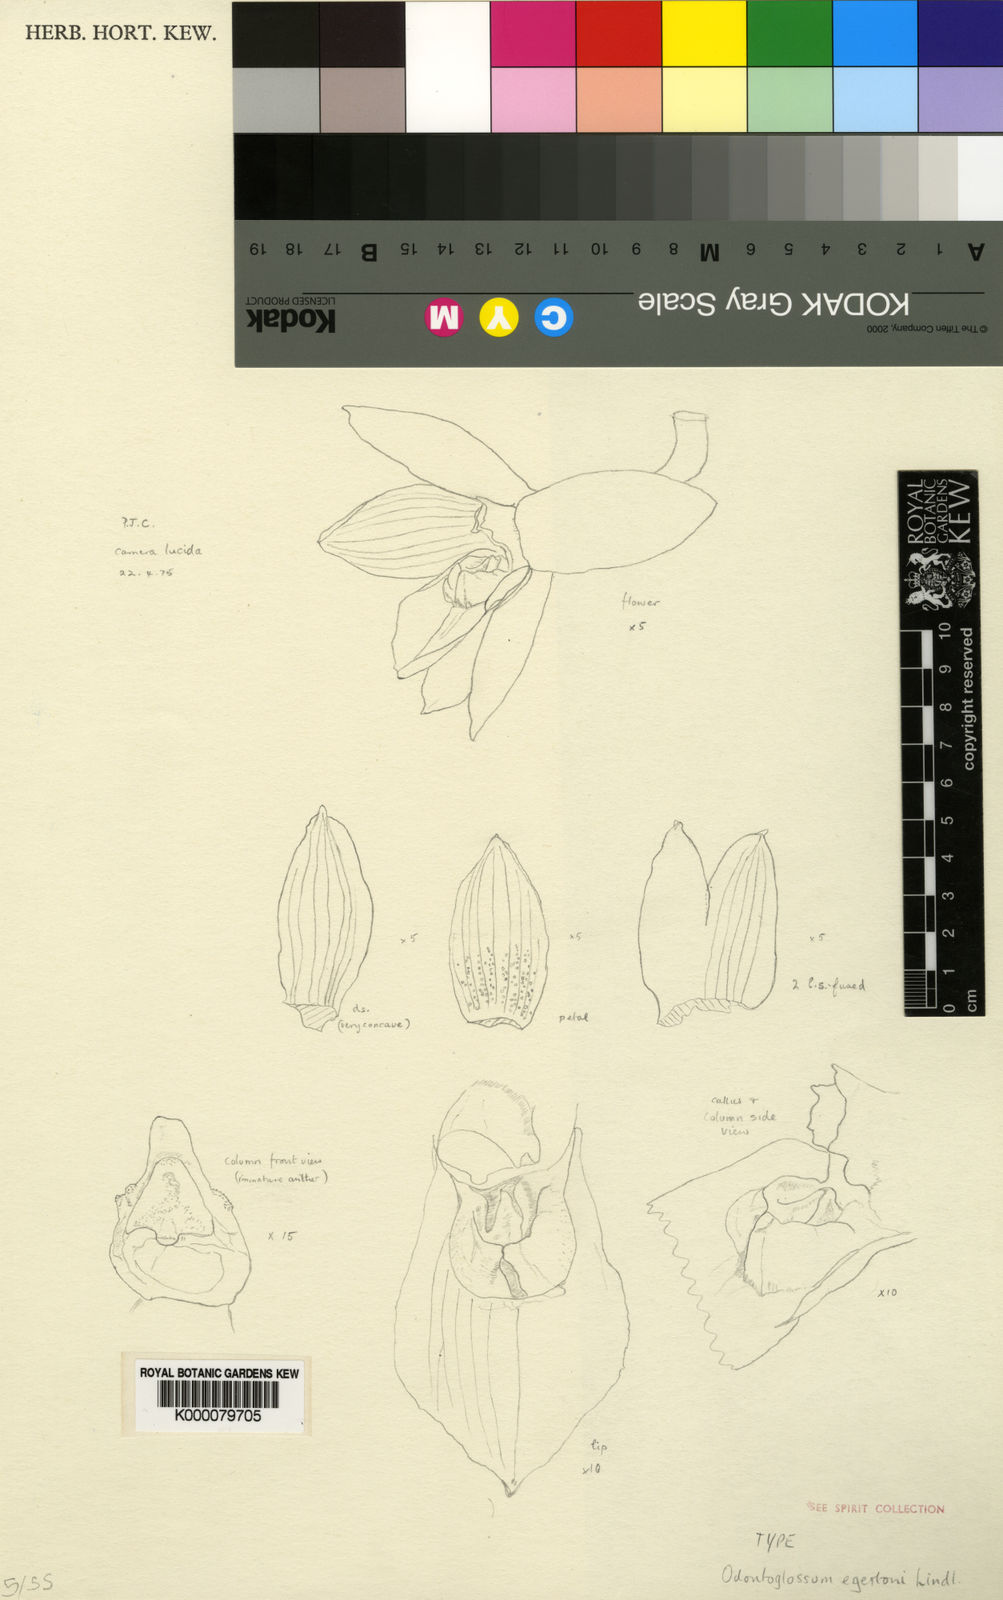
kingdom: Plantae
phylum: Tracheophyta
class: Liliopsida
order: Asparagales
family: Orchidaceae
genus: Cuitlauzina
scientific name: Cuitlauzina egertonii
